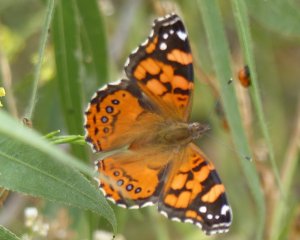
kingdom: Animalia
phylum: Arthropoda
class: Insecta
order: Lepidoptera
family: Nymphalidae
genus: Vanessa
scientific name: Vanessa annabella
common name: West Coast Lady
